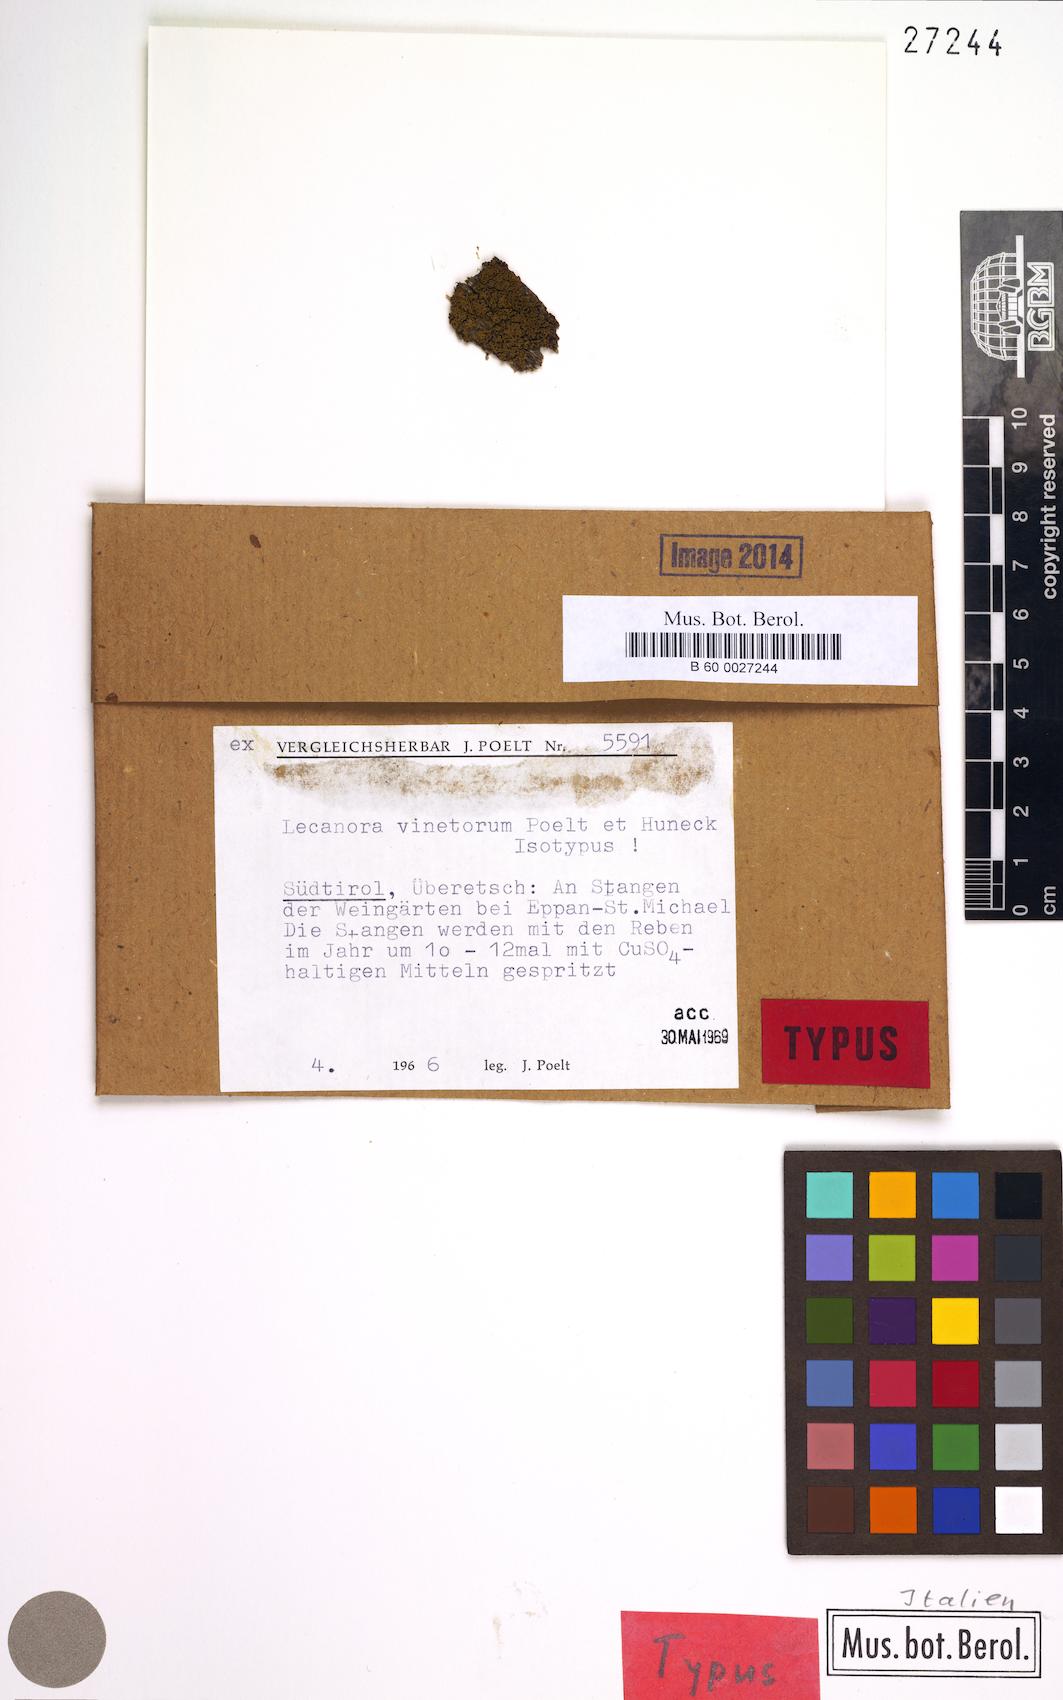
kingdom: Fungi
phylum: Ascomycota
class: Lecanoromycetes
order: Lecanorales
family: Lecanoraceae
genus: Lecanora
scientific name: Lecanora vinetorum
